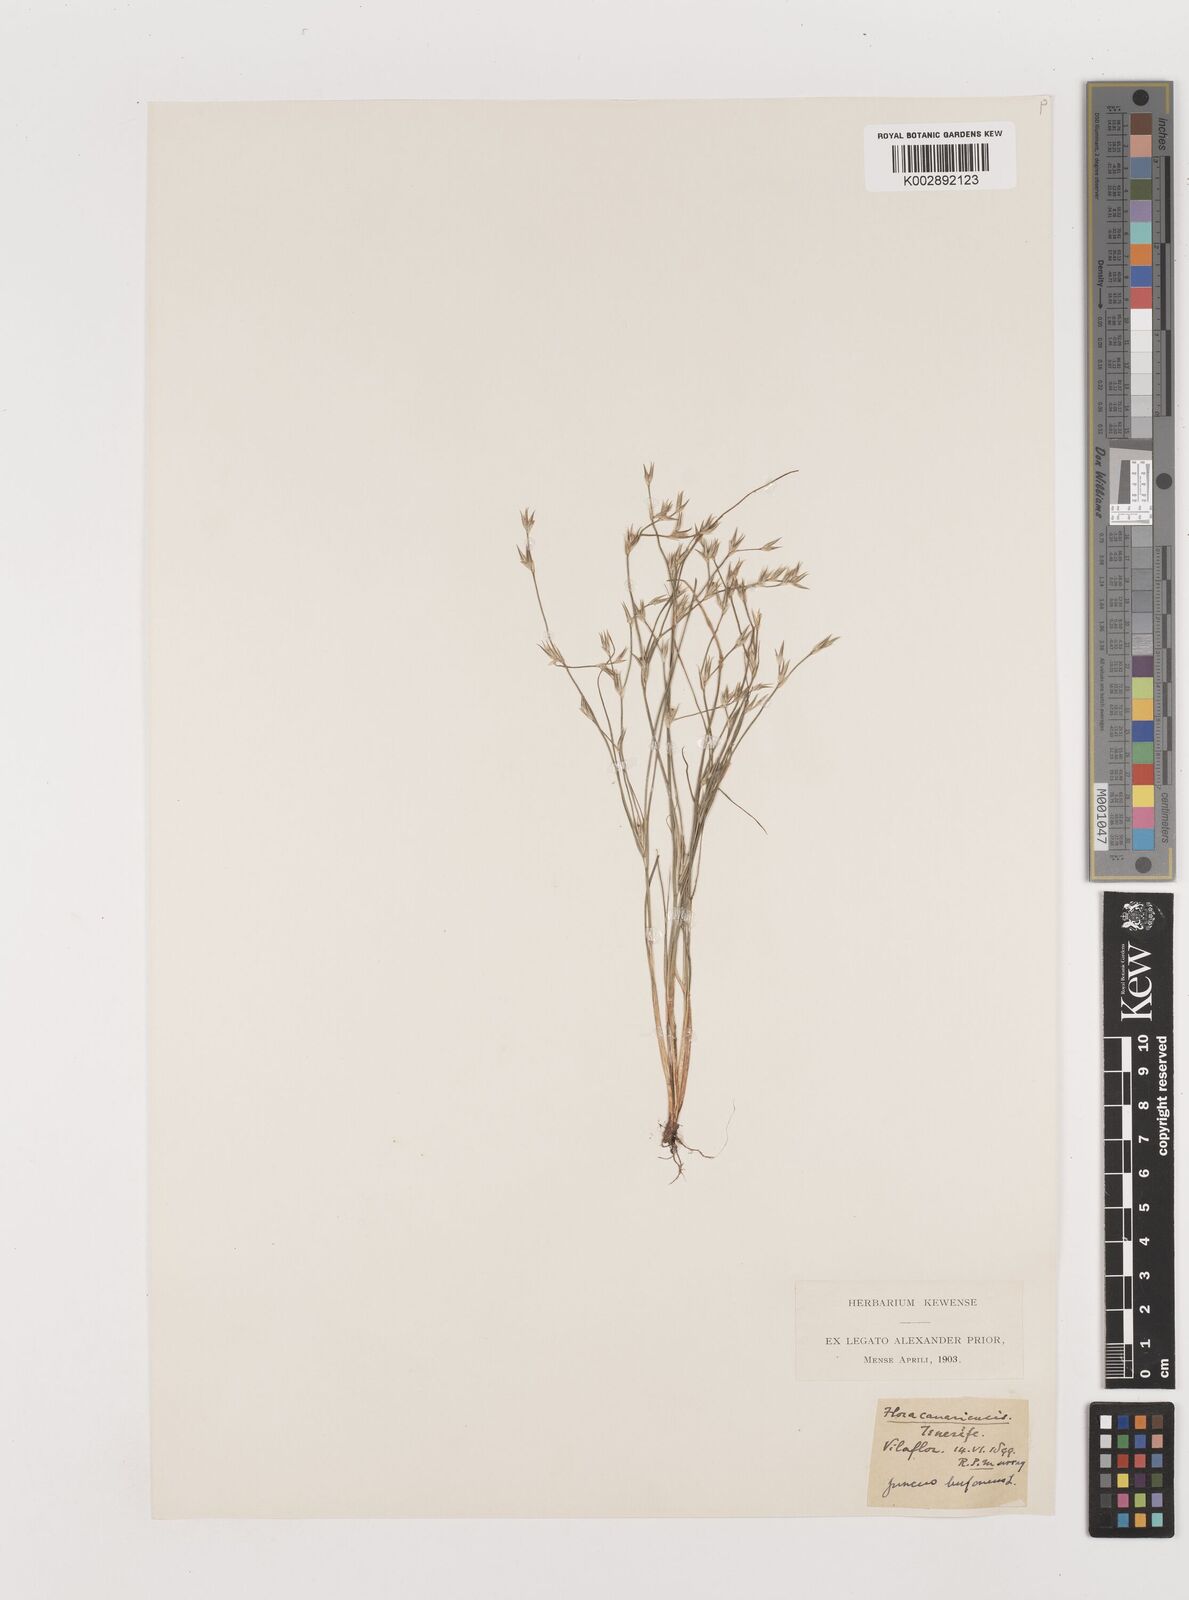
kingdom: Plantae
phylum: Tracheophyta
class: Liliopsida
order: Poales
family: Juncaceae
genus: Juncus
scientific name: Juncus bufonius
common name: Toad rush
